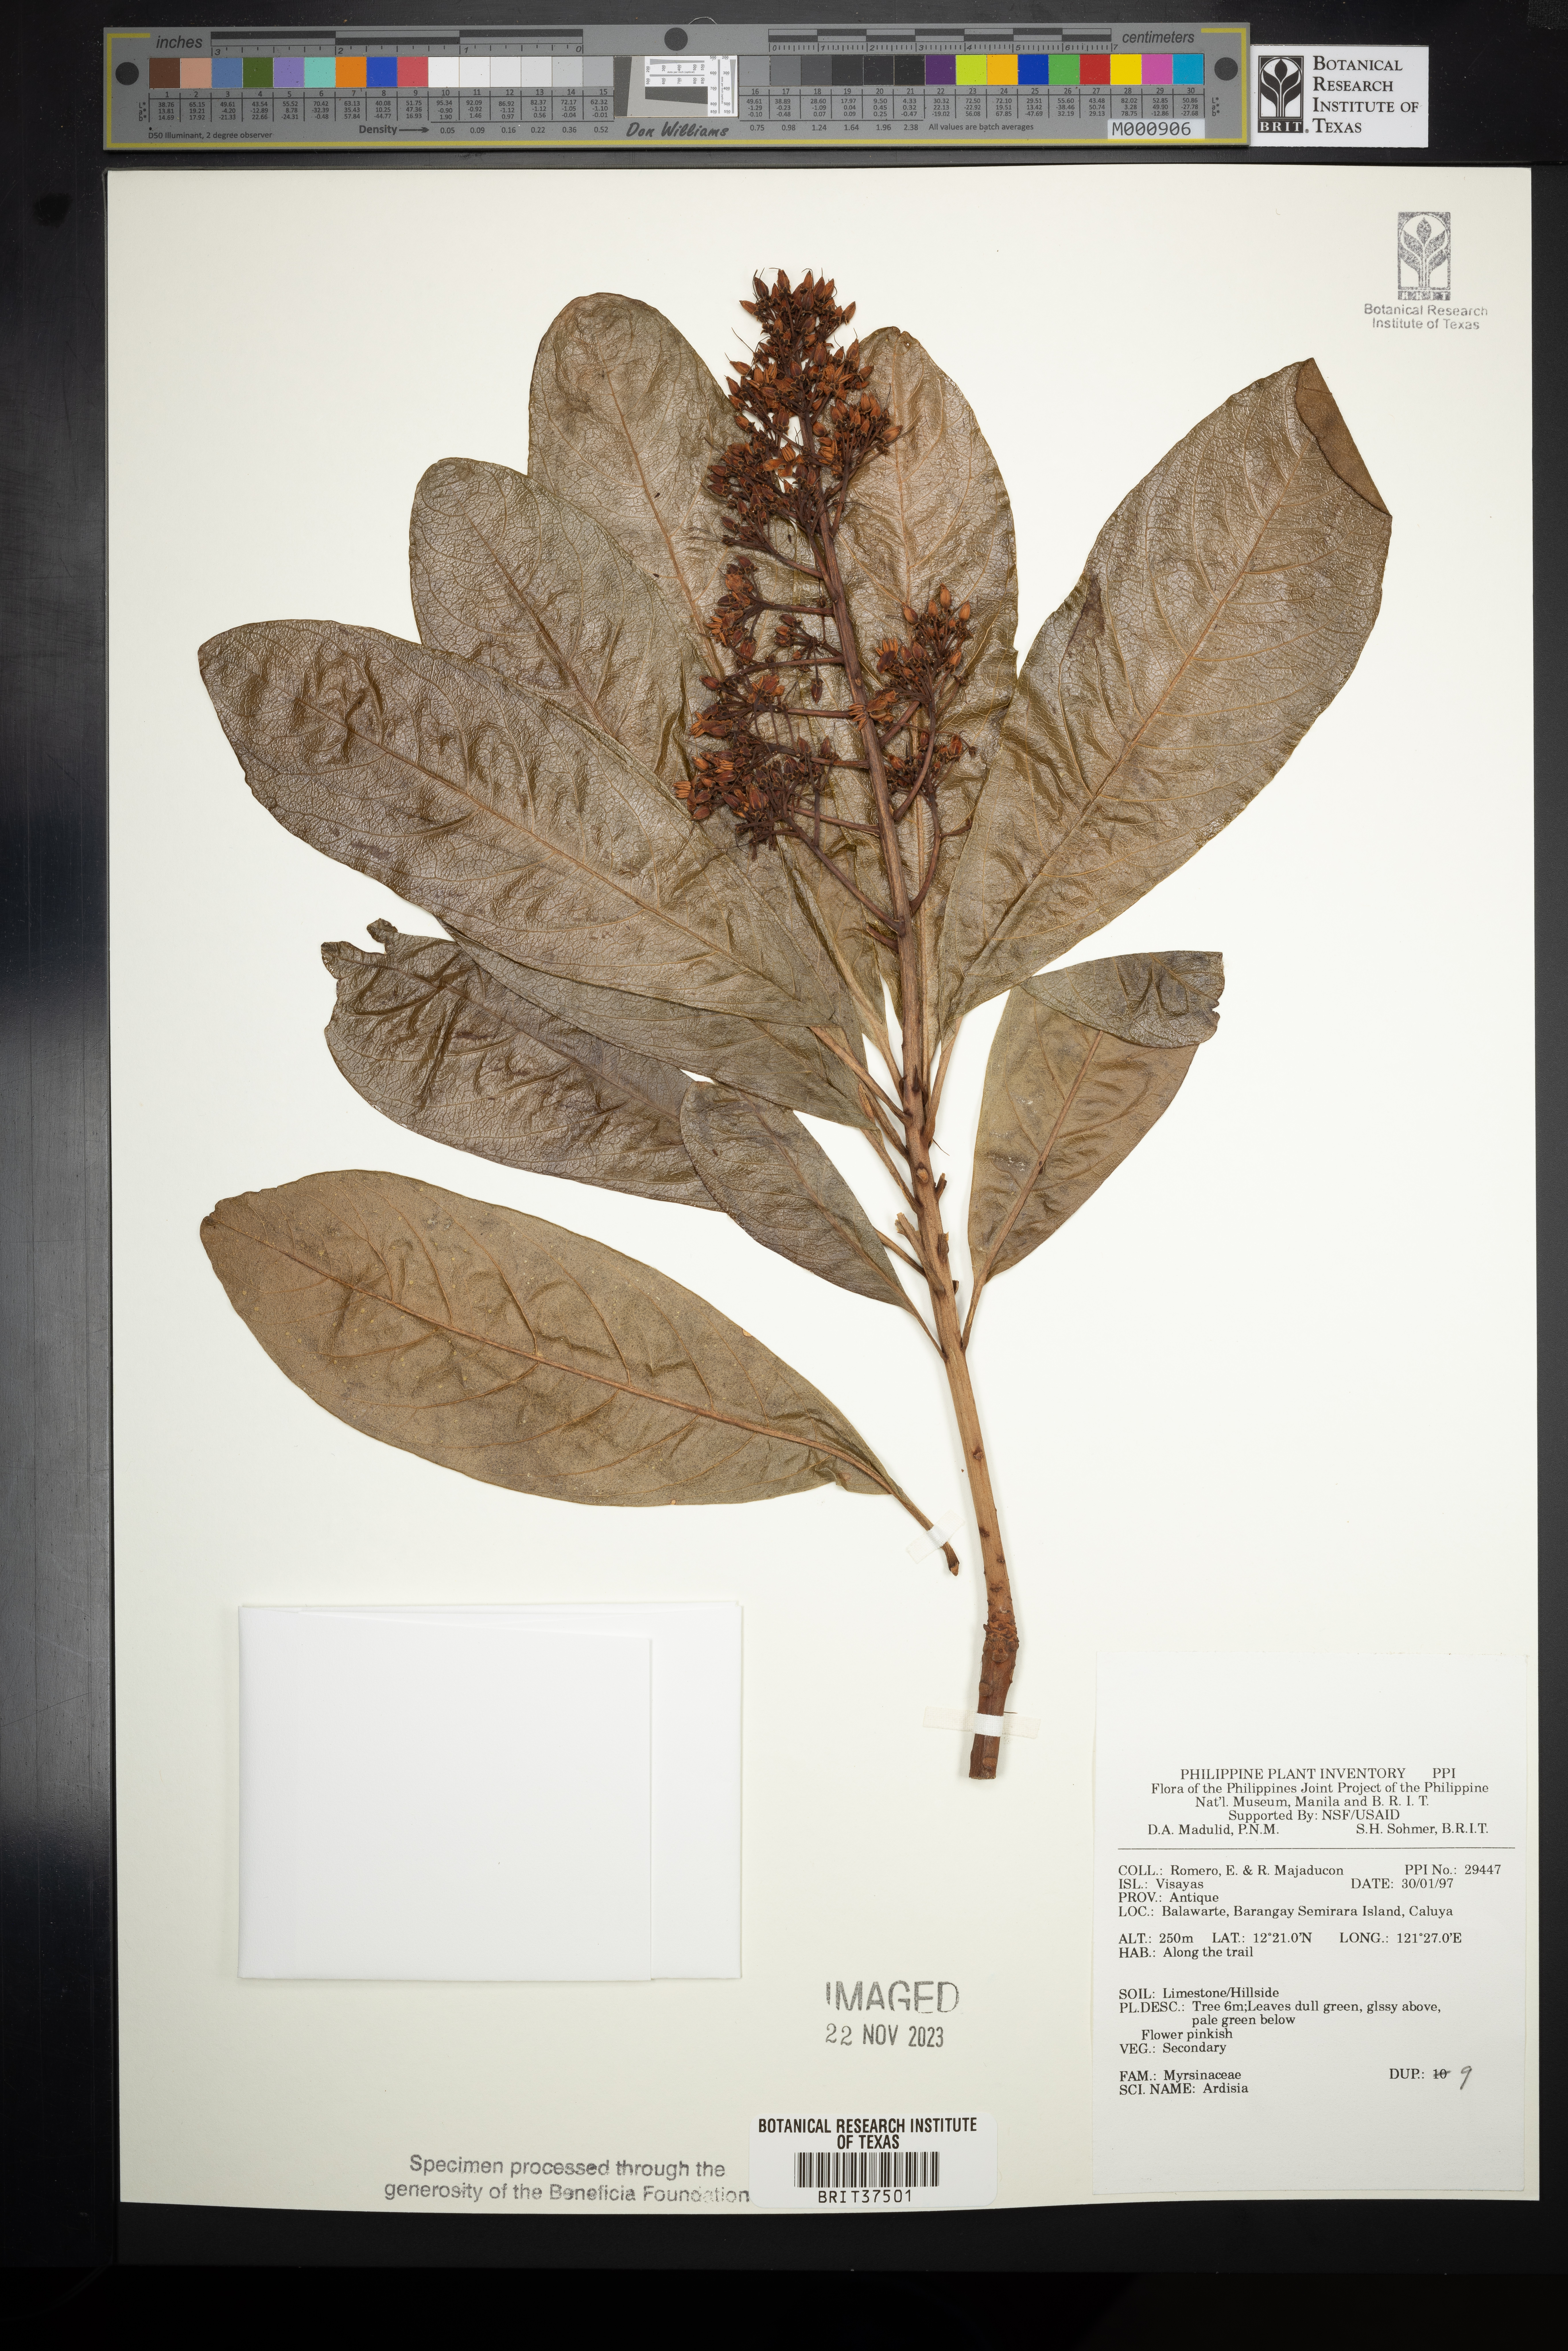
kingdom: Plantae
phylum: Tracheophyta
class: Magnoliopsida
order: Ericales
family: Primulaceae
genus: Ardisia
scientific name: Ardisia
